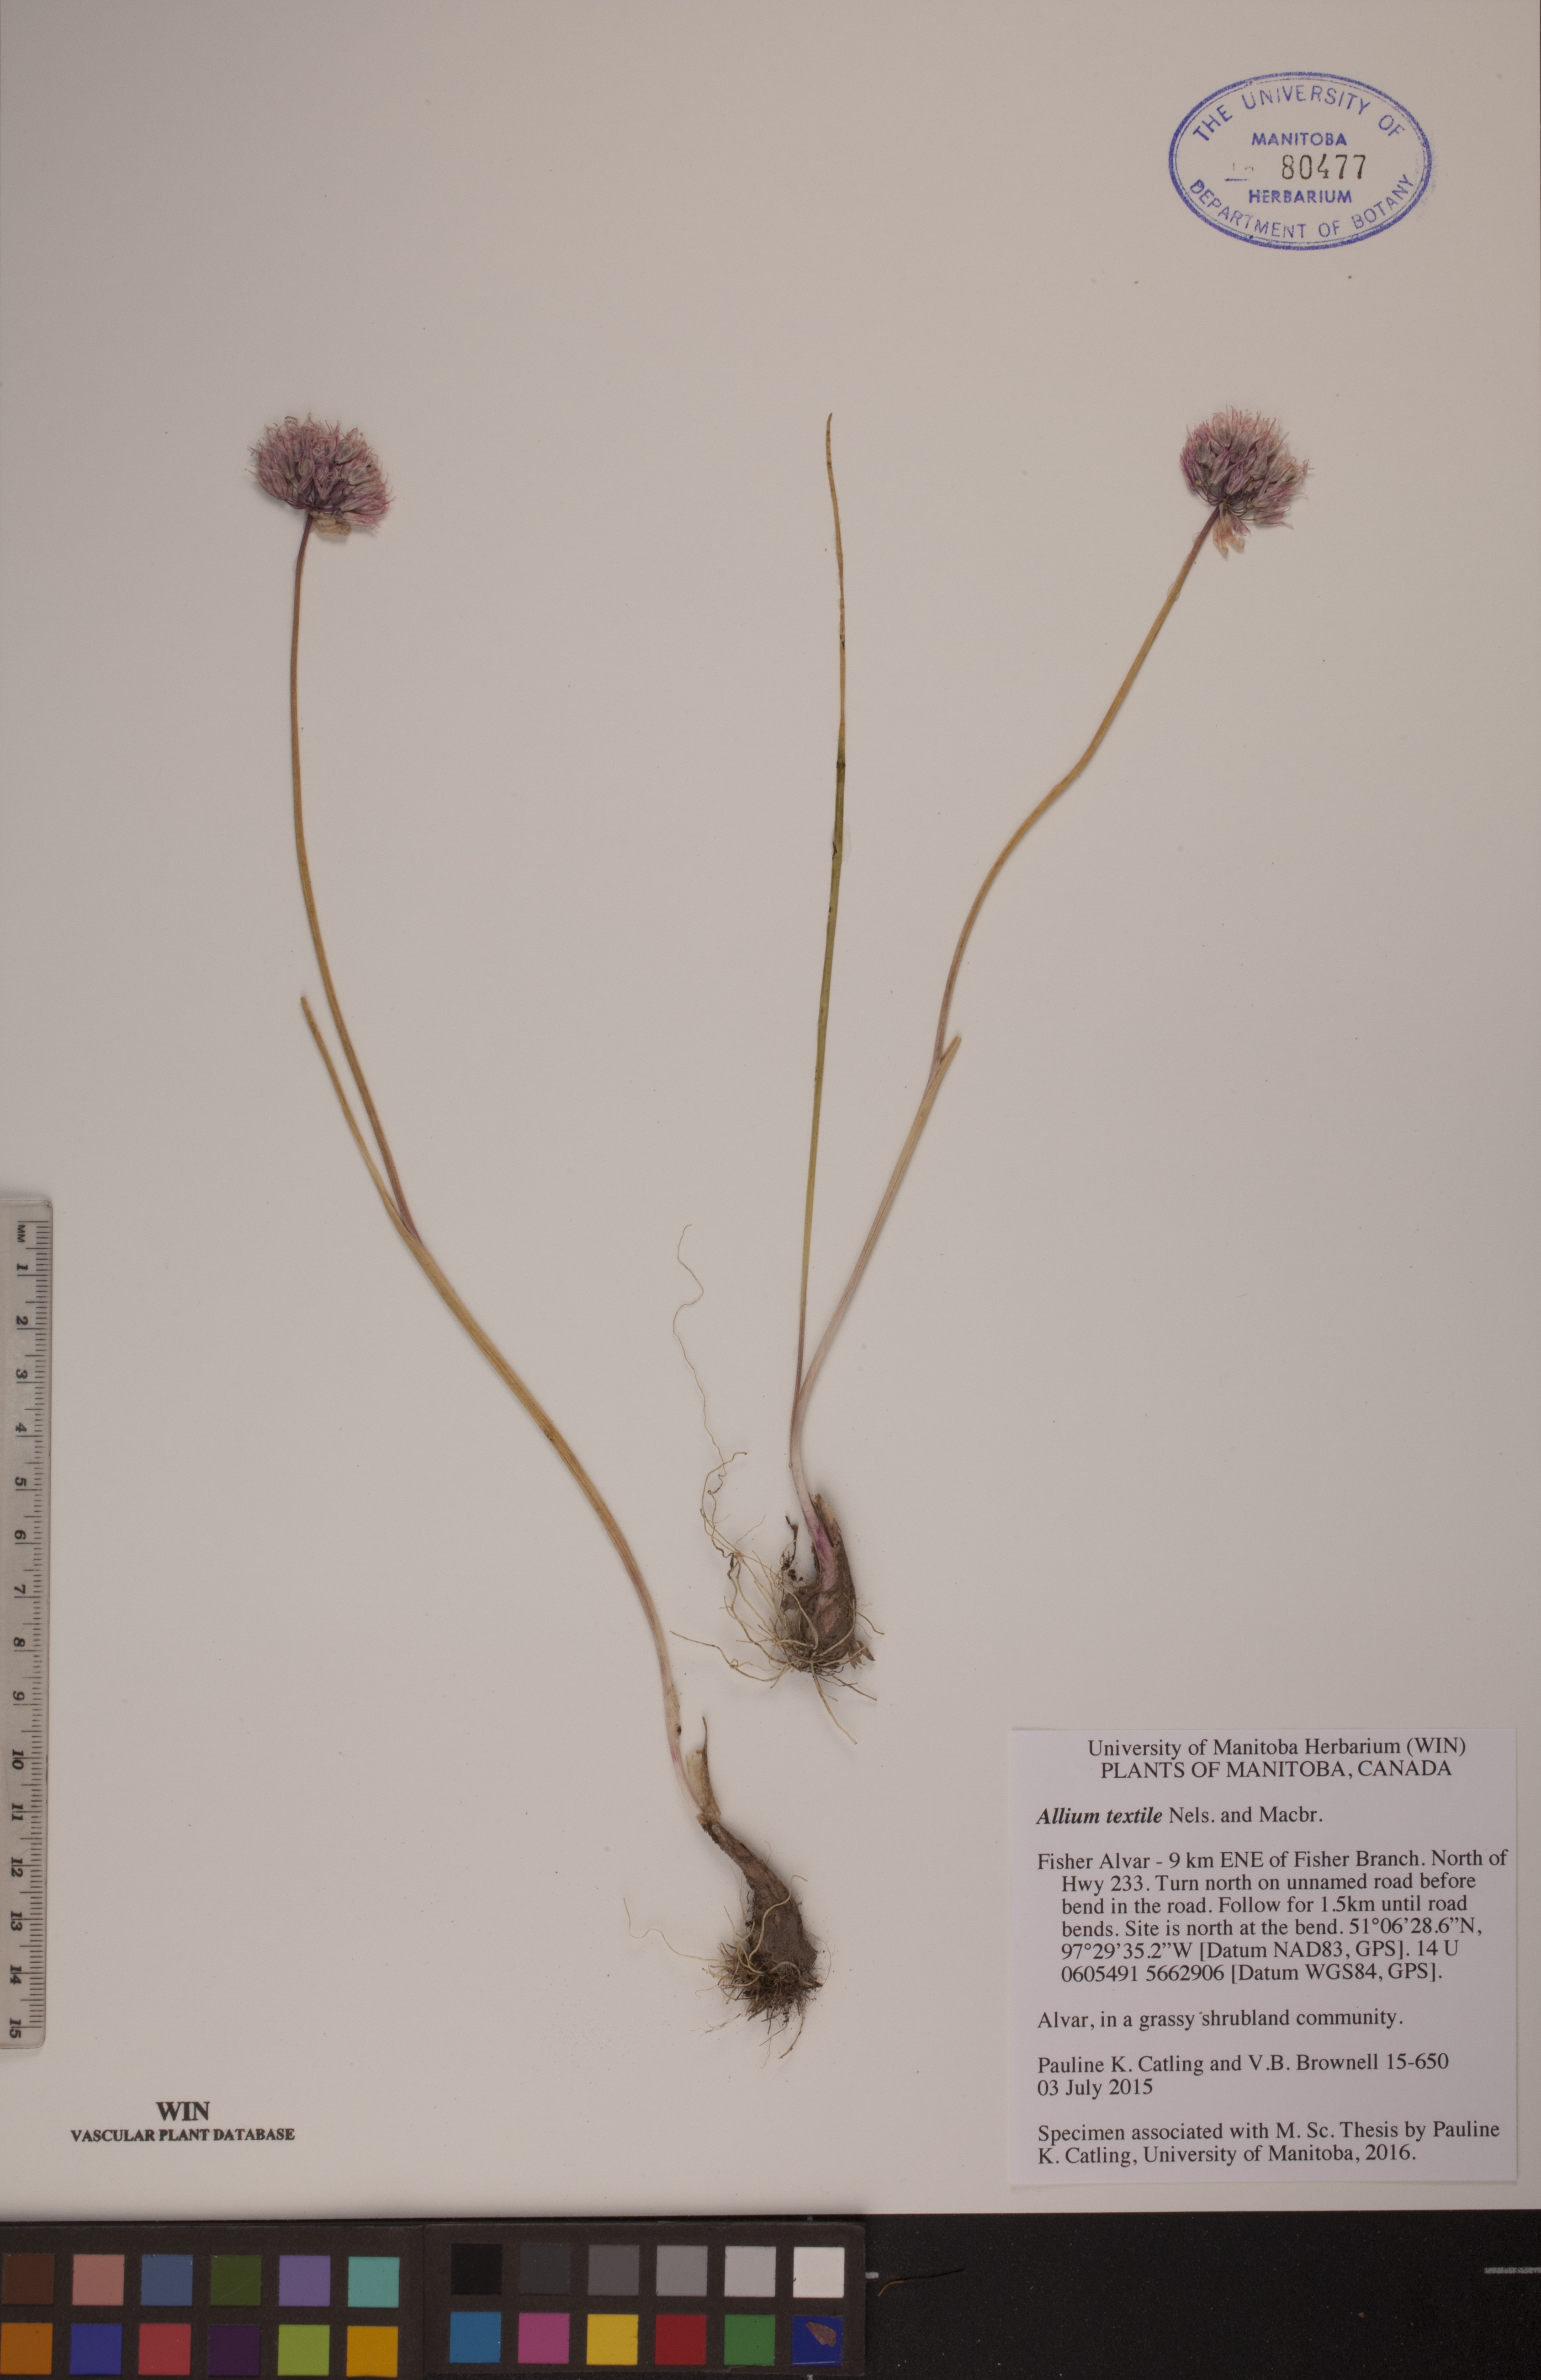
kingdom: Plantae
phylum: Tracheophyta
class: Liliopsida
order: Asparagales
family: Amaryllidaceae
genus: Allium
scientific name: Allium textile
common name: Prairie onion
